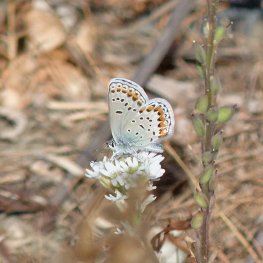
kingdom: Animalia
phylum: Arthropoda
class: Insecta
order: Lepidoptera
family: Lycaenidae
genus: Lycaeides
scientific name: Lycaeides melissa
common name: Melissa Blue
